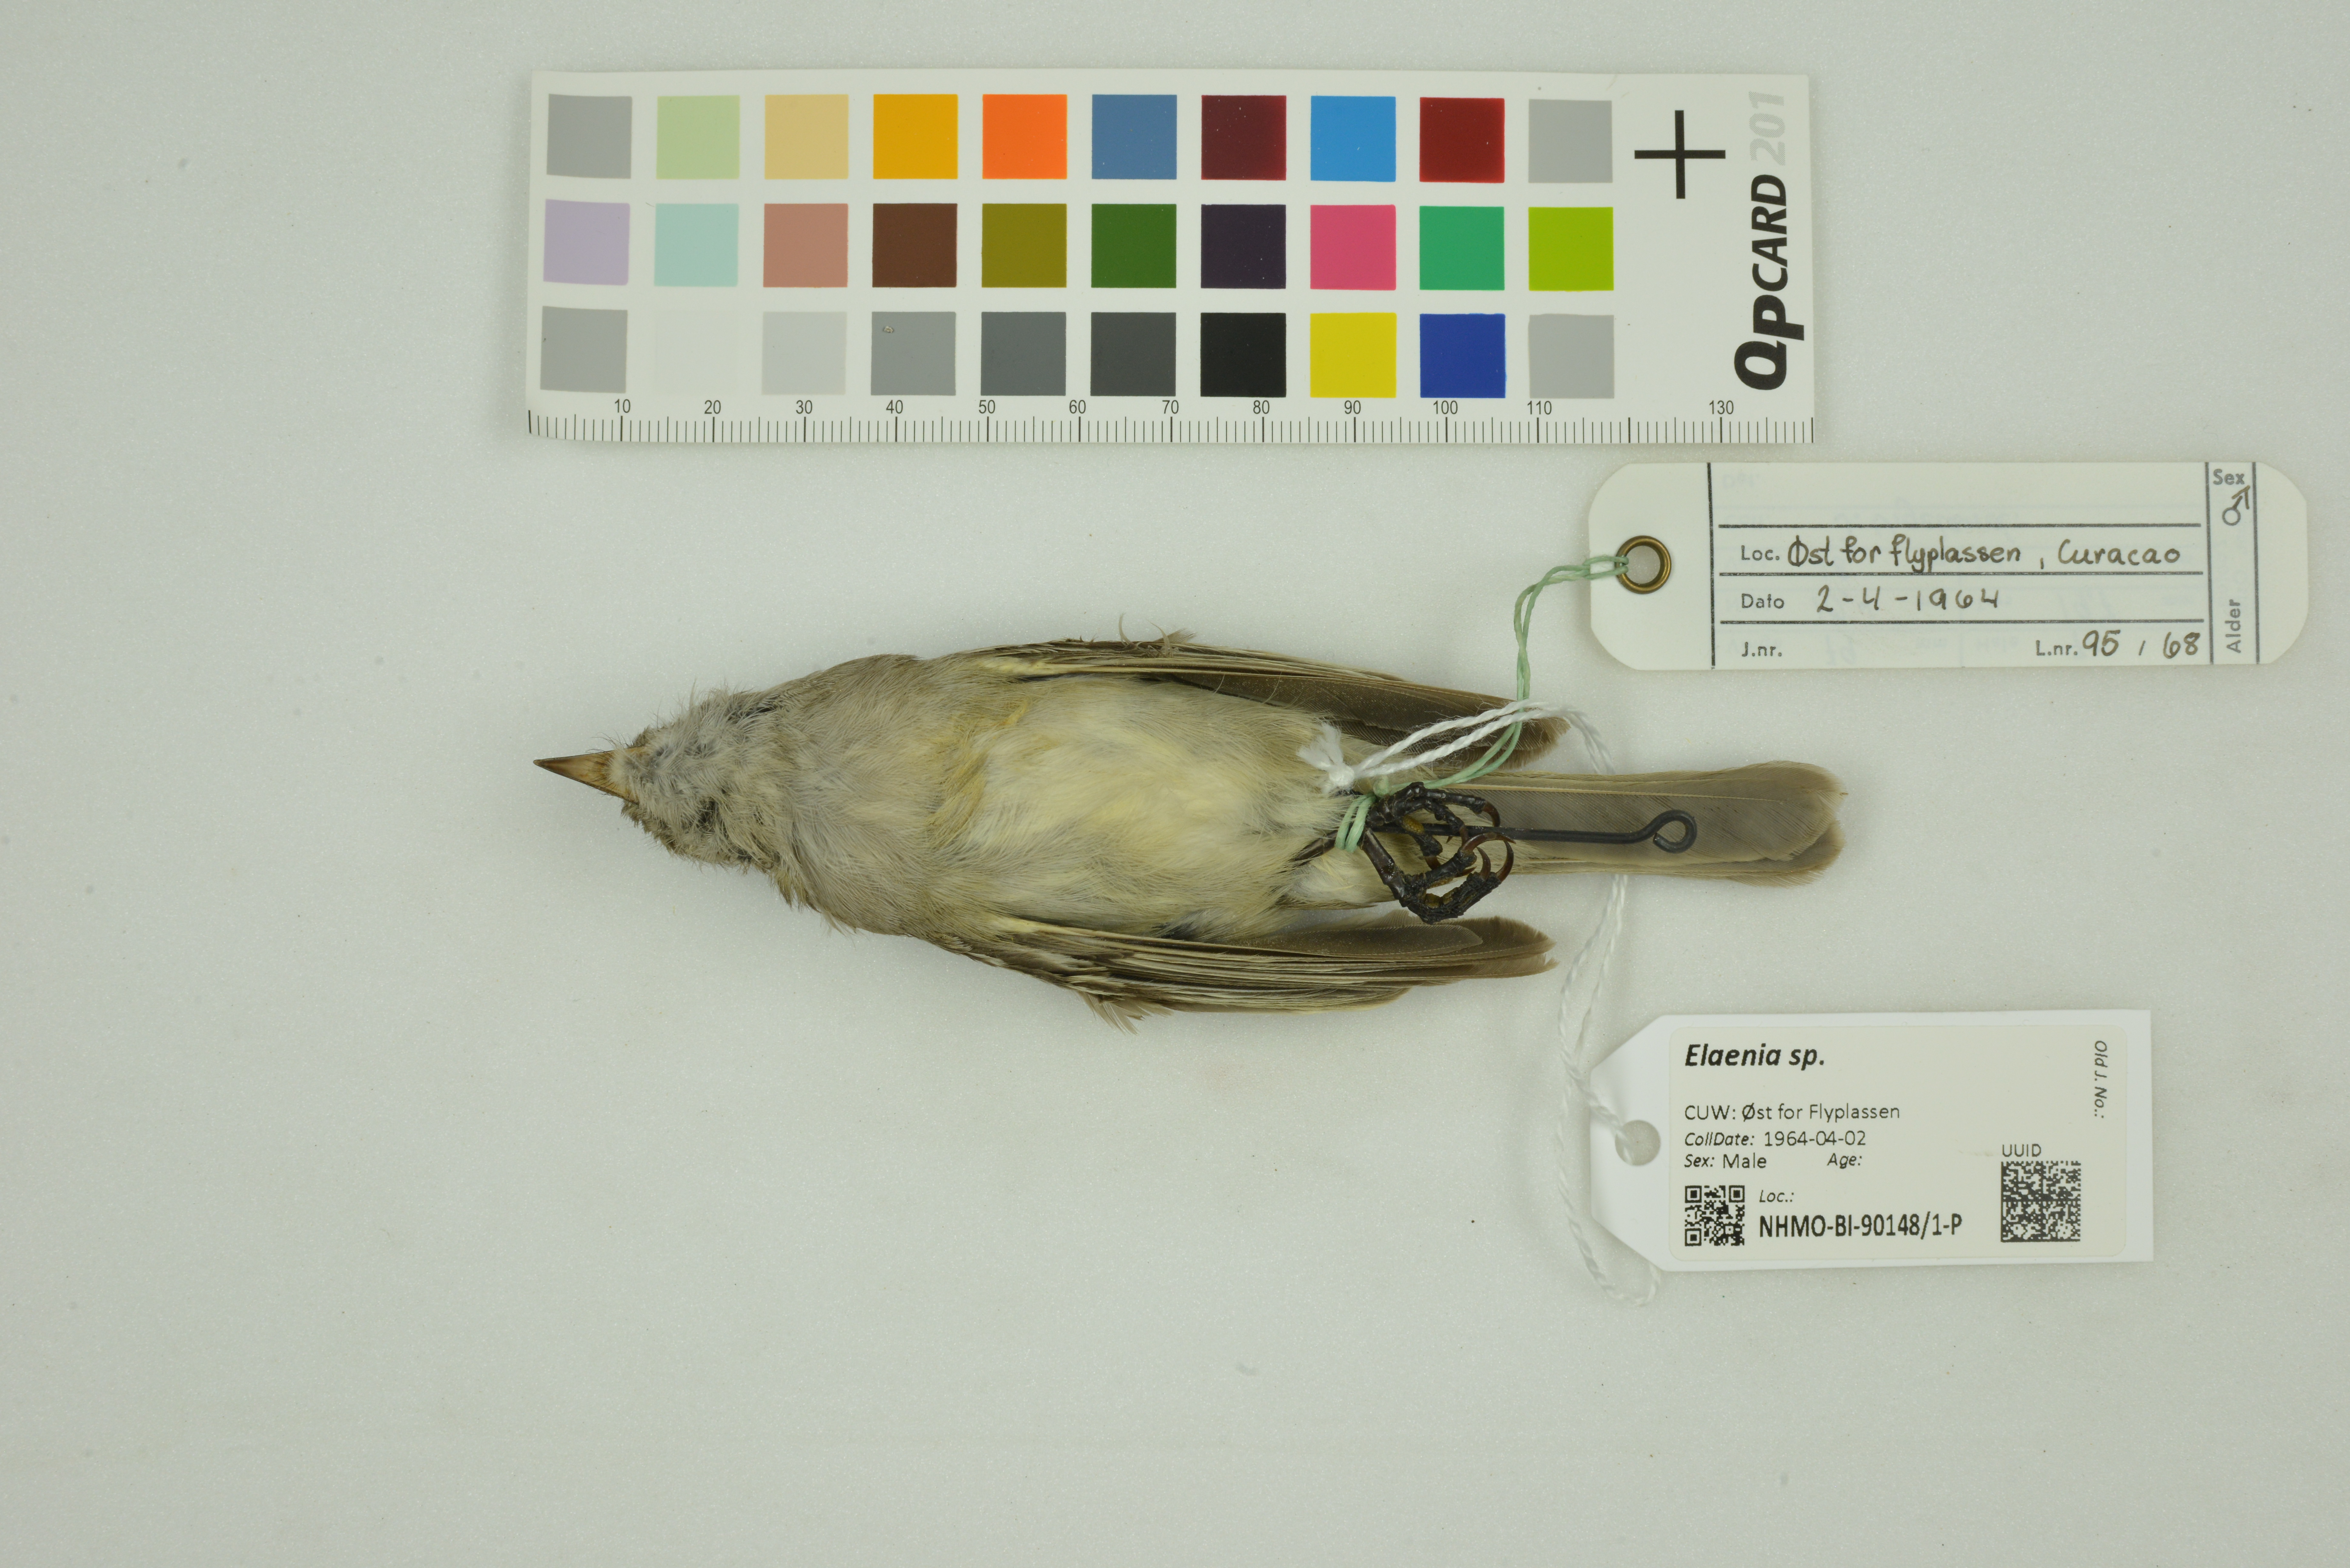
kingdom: Animalia
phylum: Chordata
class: Aves
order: Passeriformes
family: Tyrannidae
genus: Elaenia
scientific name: Elaenia
